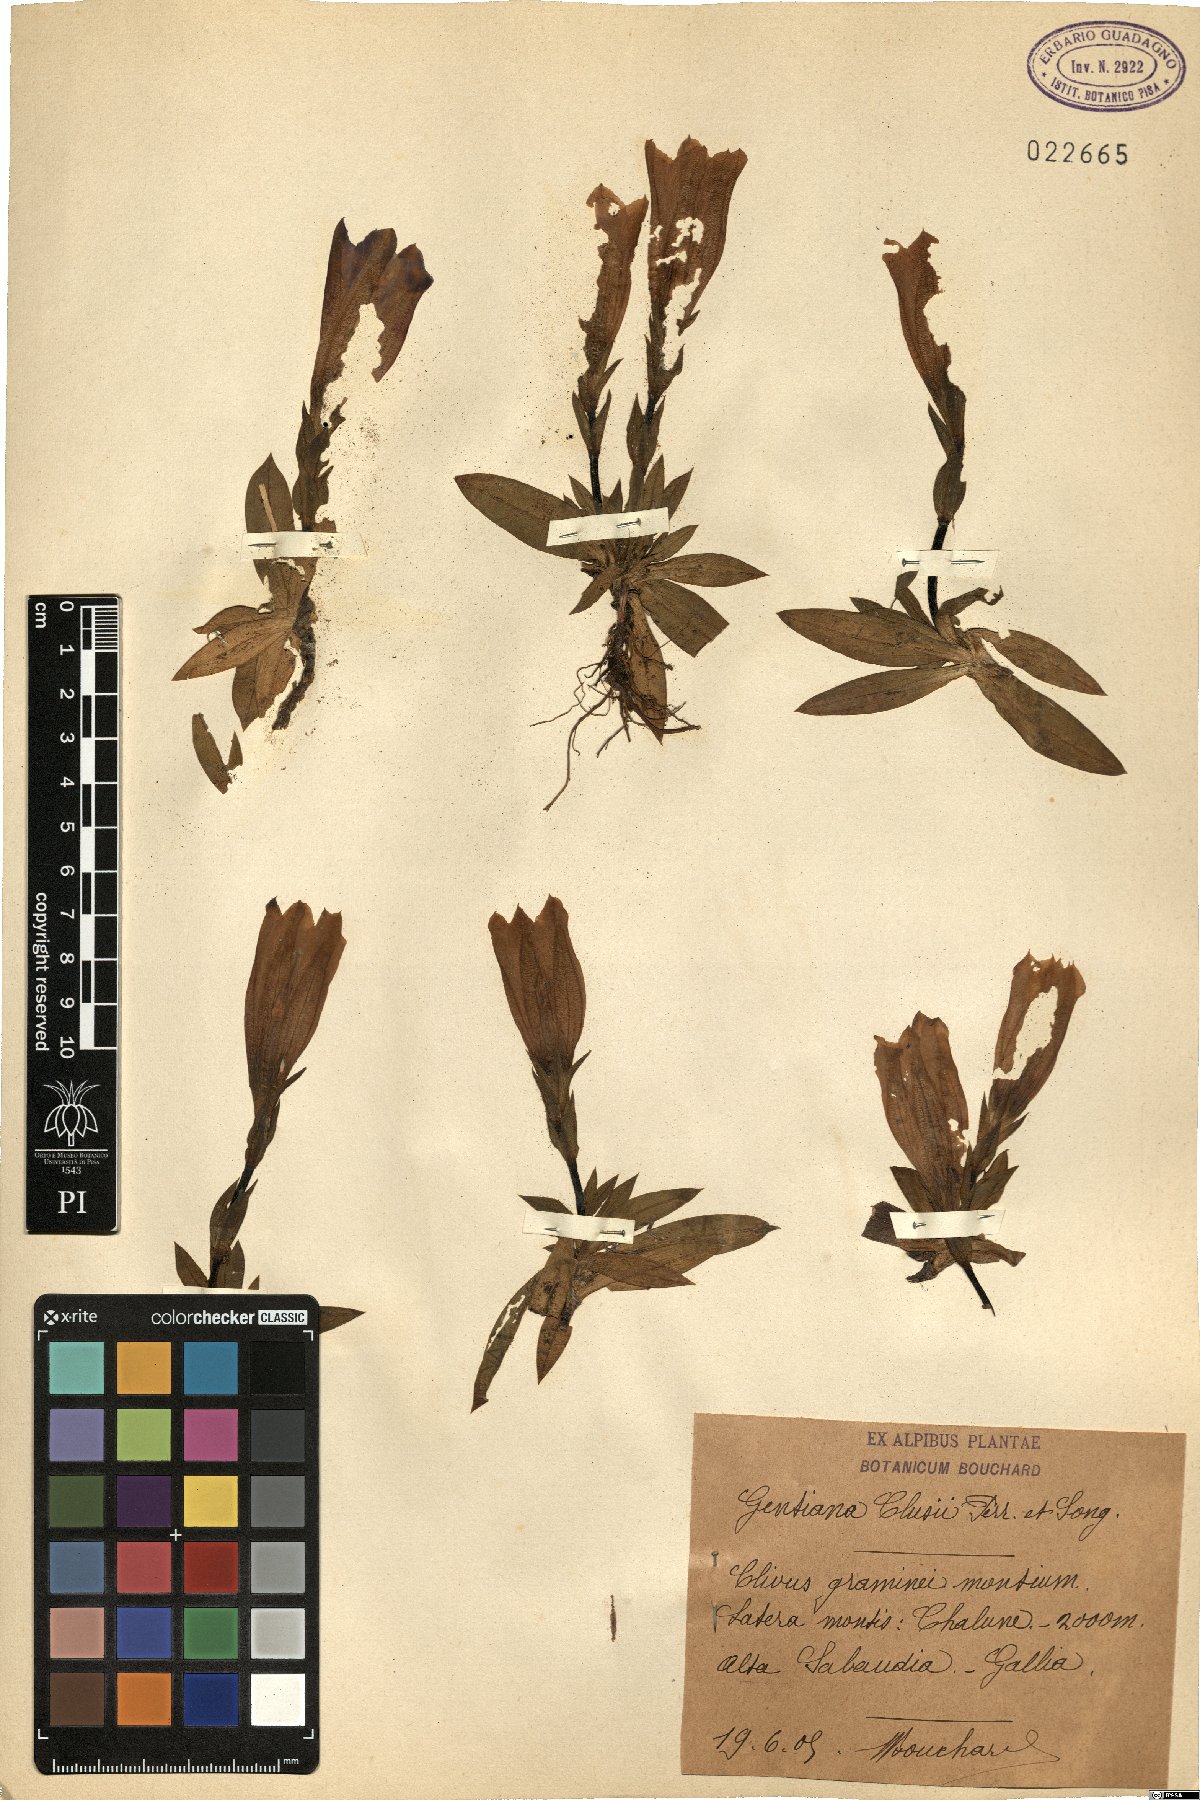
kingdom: Plantae
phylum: Tracheophyta
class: Magnoliopsida
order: Gentianales
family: Gentianaceae
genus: Gentiana
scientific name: Gentiana clusii
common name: Trumpet gentian
